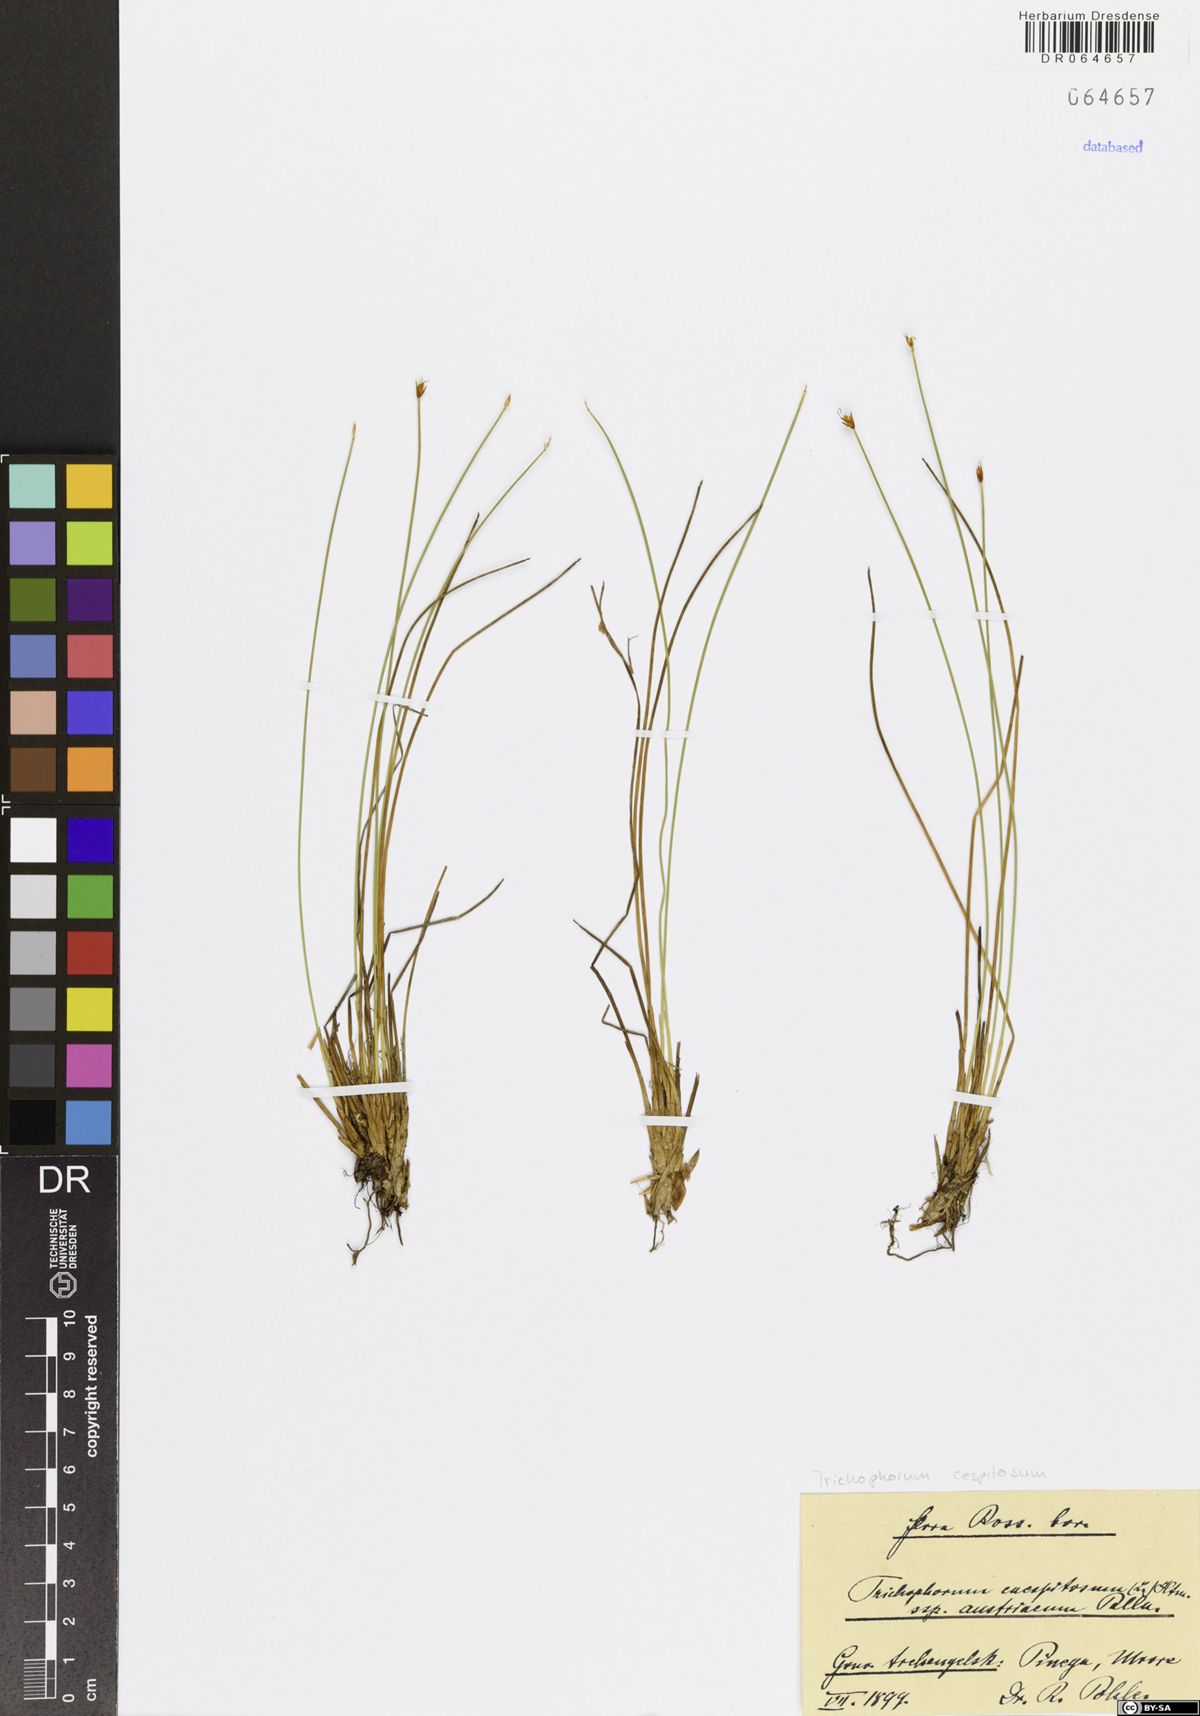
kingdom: Plantae
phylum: Tracheophyta
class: Liliopsida
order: Poales
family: Cyperaceae
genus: Trichophorum
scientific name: Trichophorum cespitosum
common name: Cespitose bulrush
